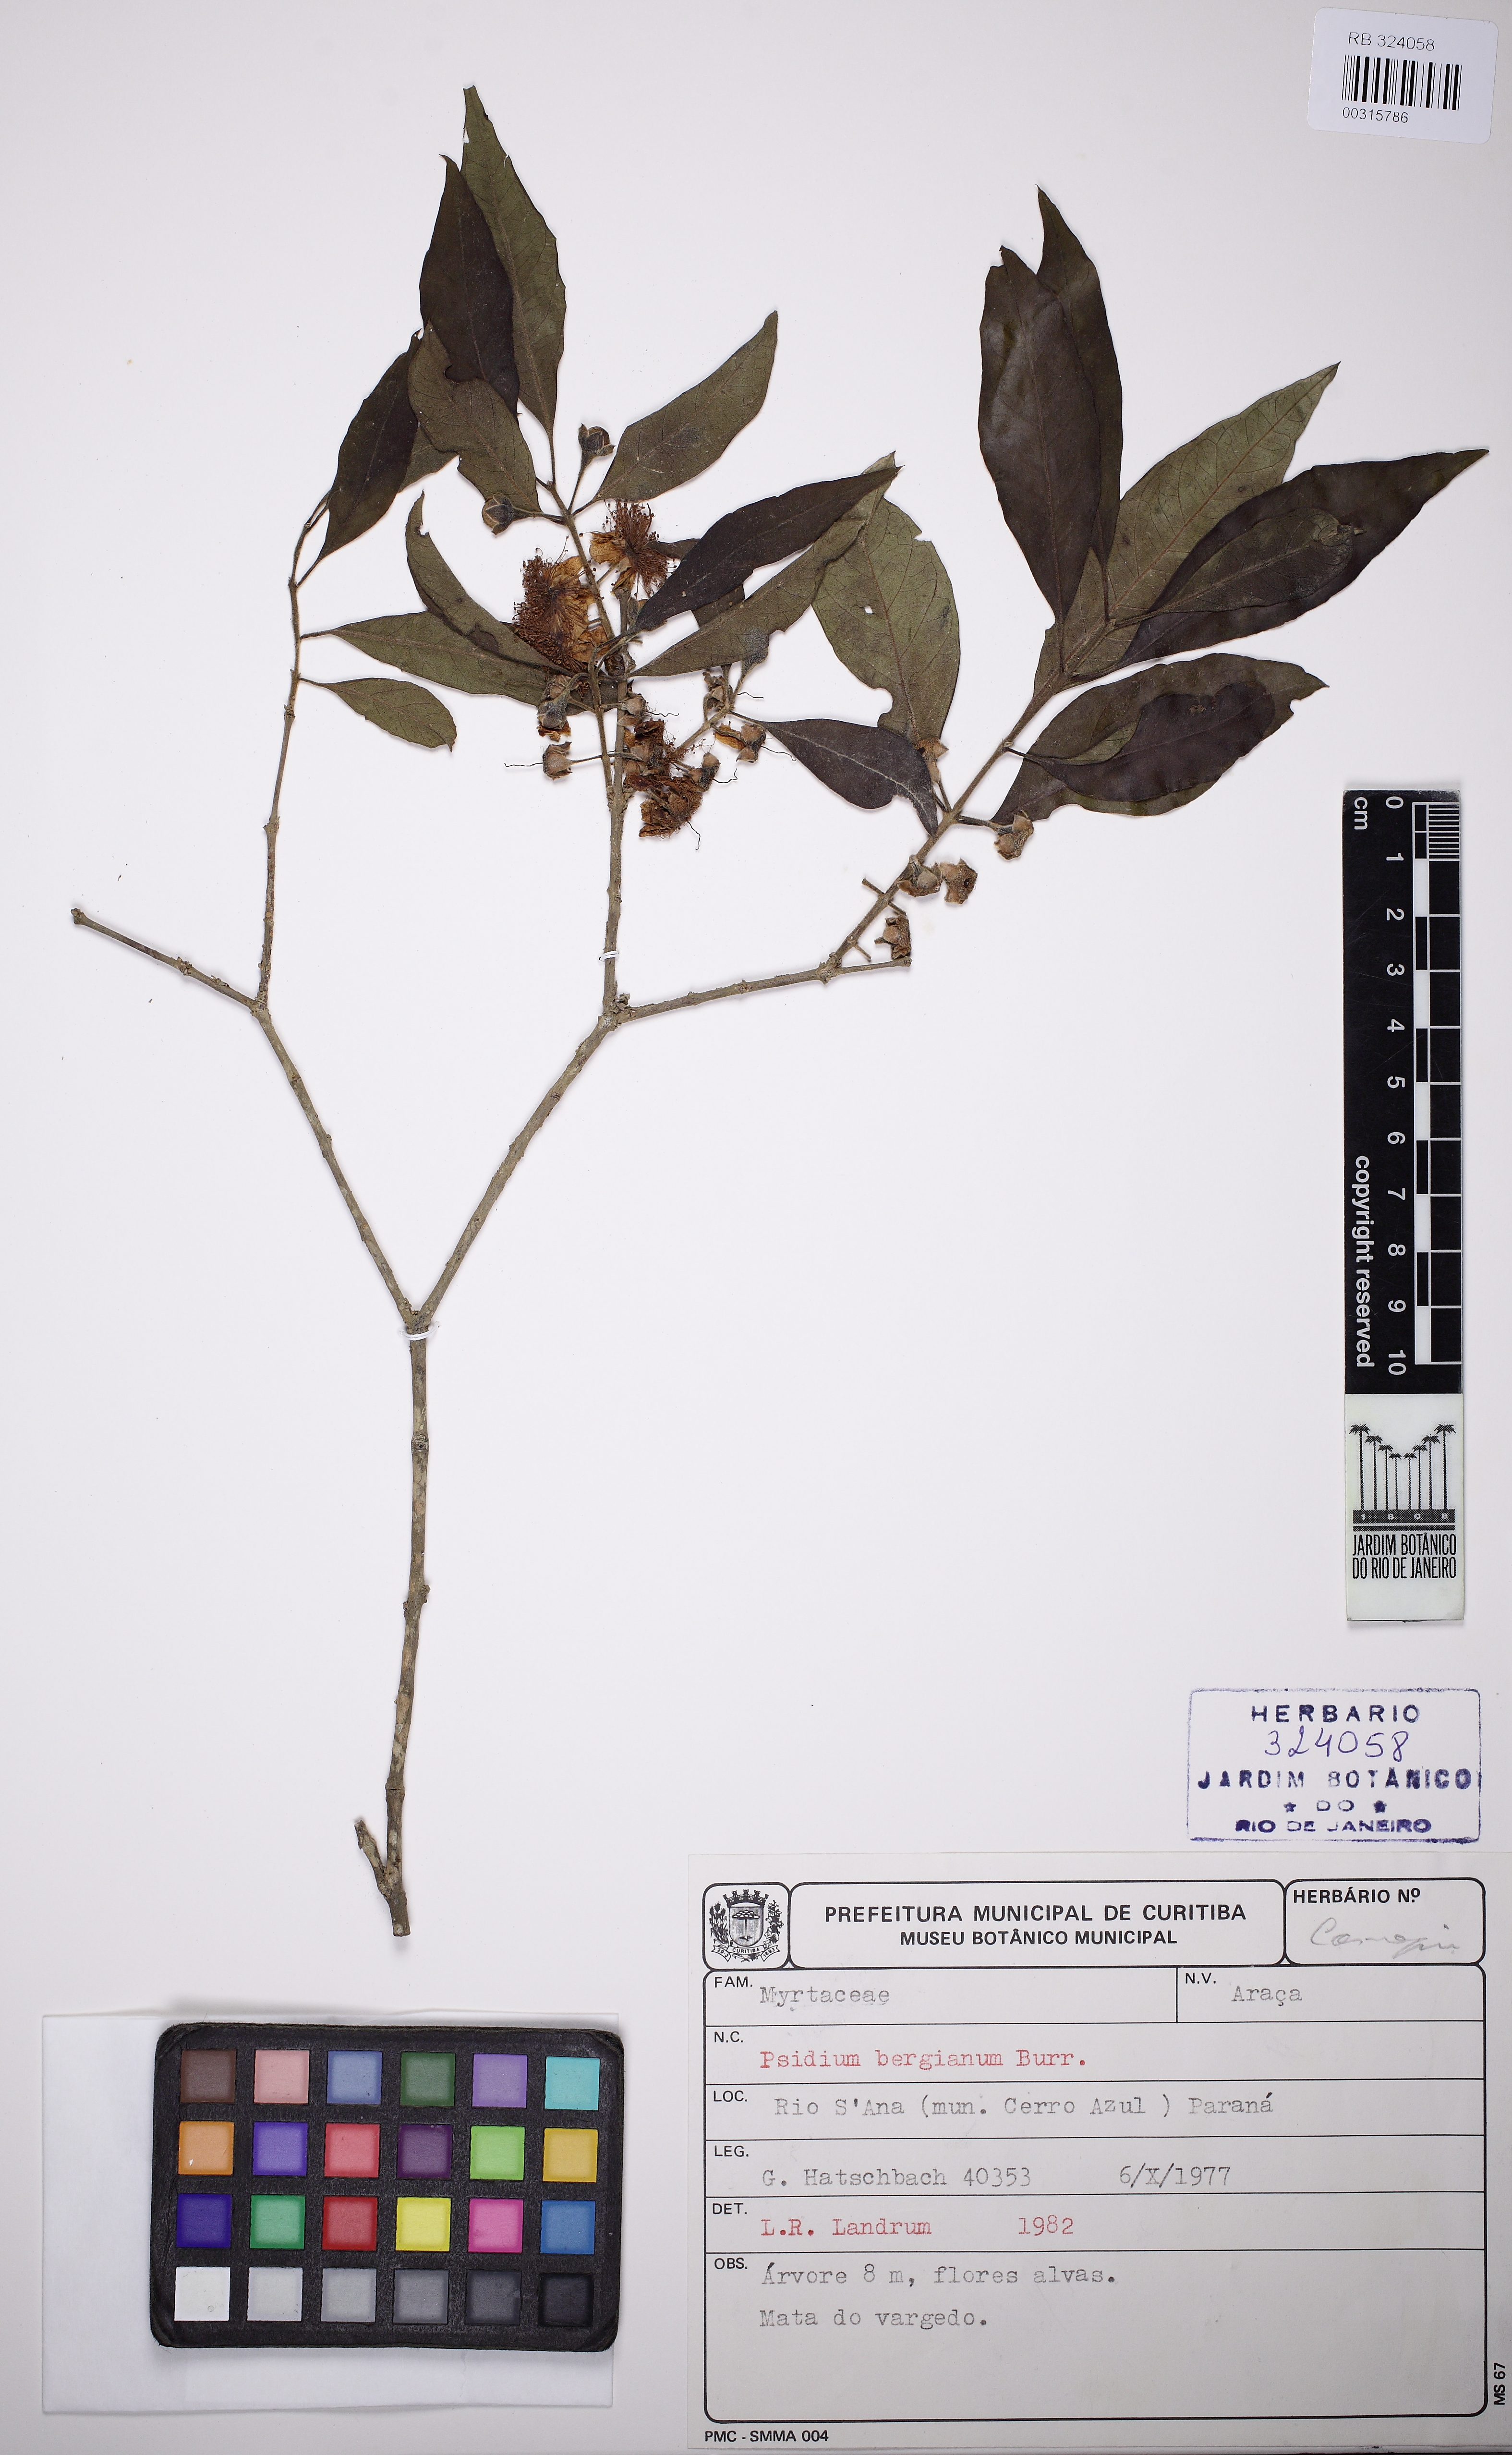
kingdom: Plantae
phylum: Tracheophyta
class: Magnoliopsida
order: Myrtales
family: Myrtaceae
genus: Psidium
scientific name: Psidium bergianum
